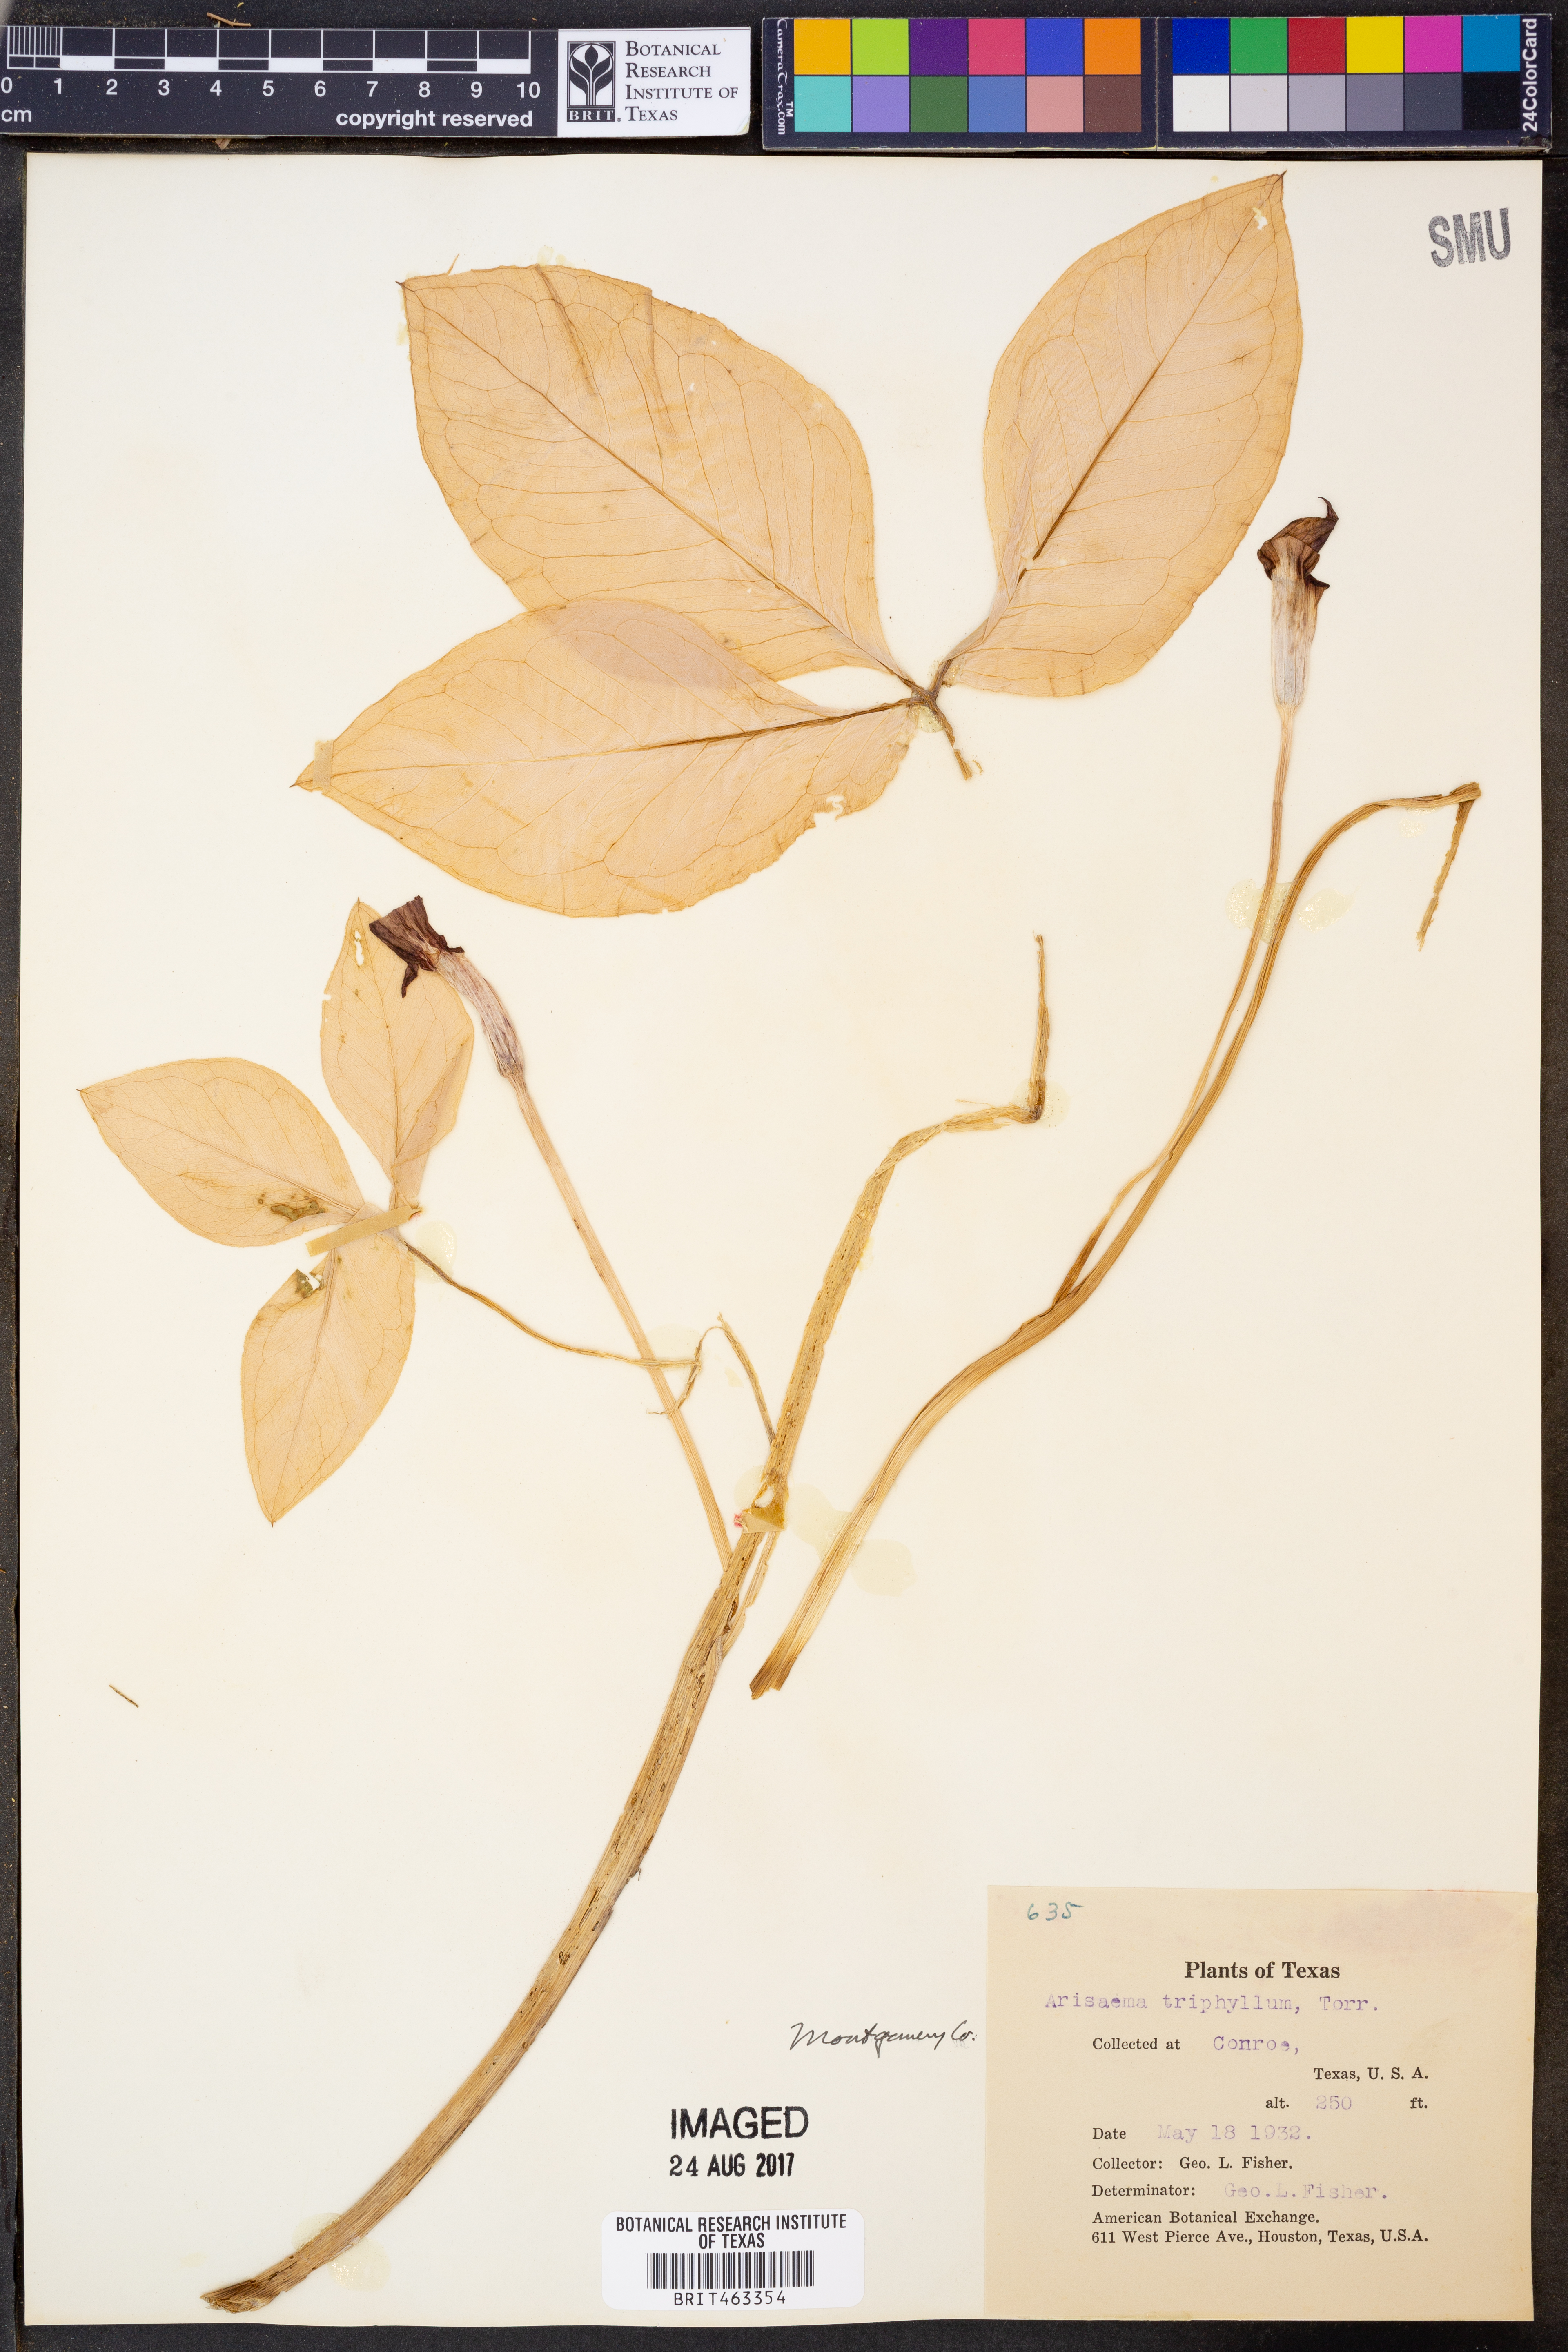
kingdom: Plantae
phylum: Tracheophyta
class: Liliopsida
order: Alismatales
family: Araceae
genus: Arisaema
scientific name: Arisaema triphyllum
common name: Jack-in-the-pulpit
